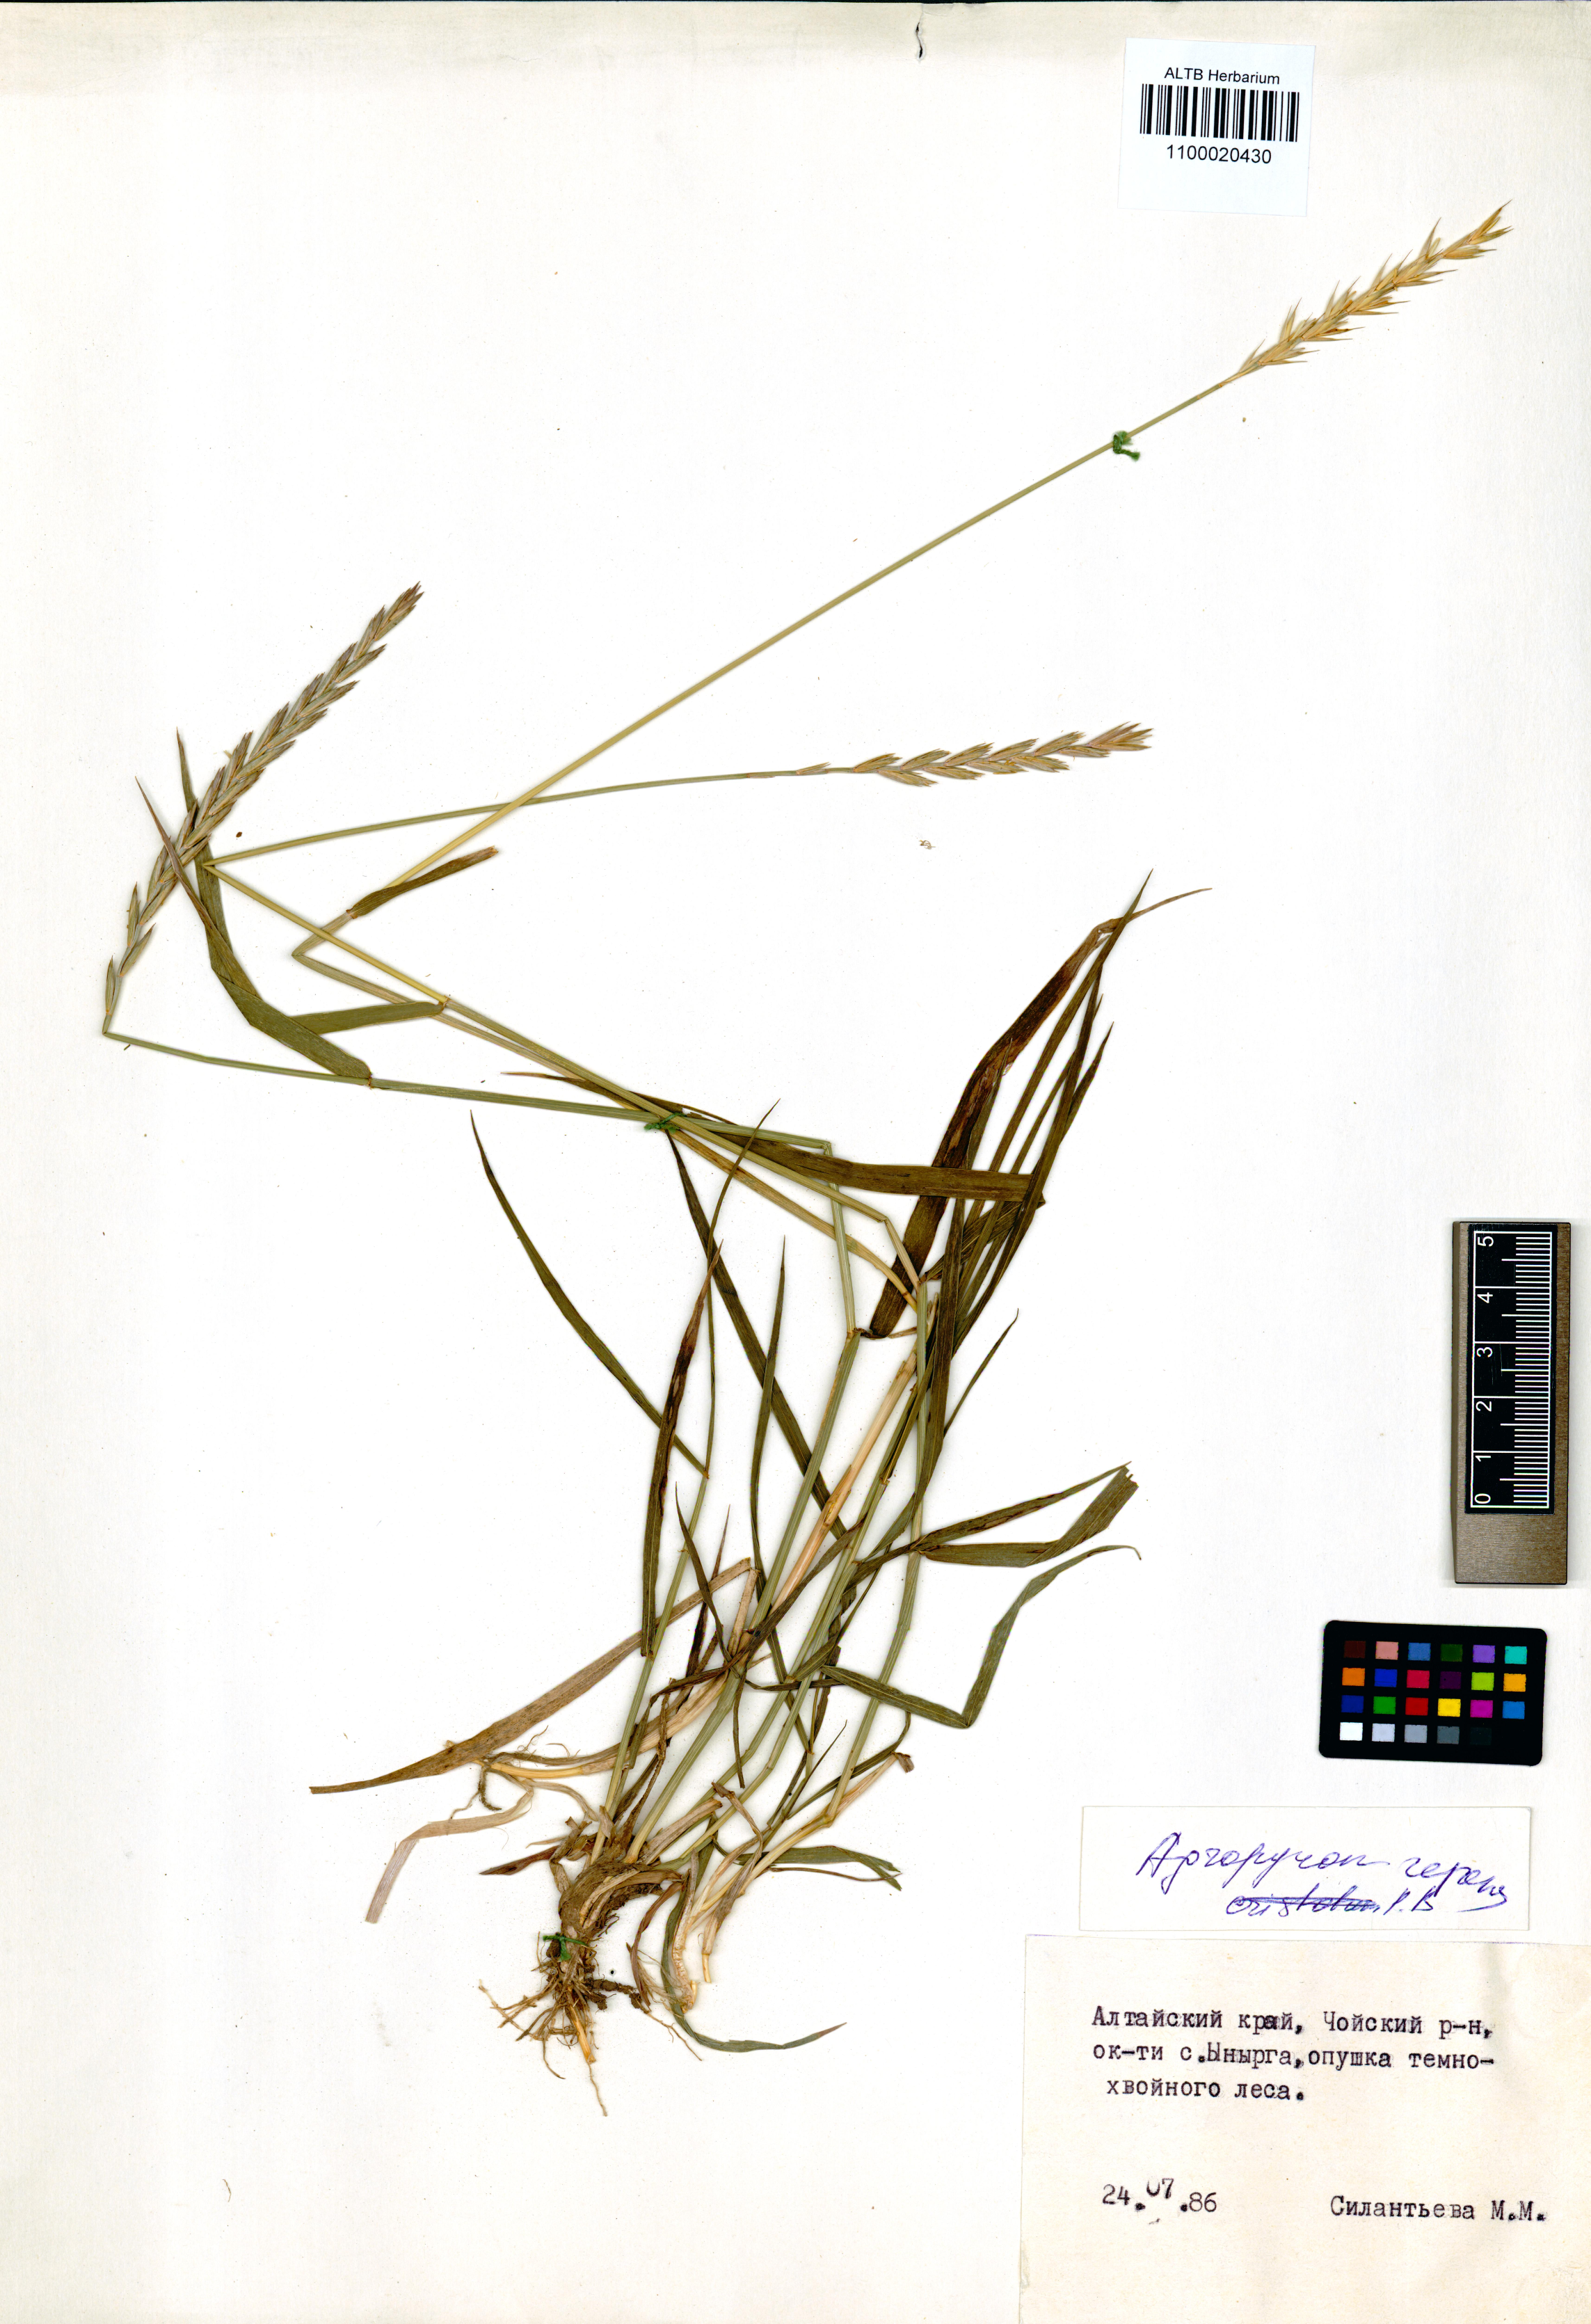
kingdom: Plantae
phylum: Tracheophyta
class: Liliopsida
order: Poales
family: Poaceae
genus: Elymus
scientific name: Elymus repens
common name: Quackgrass
